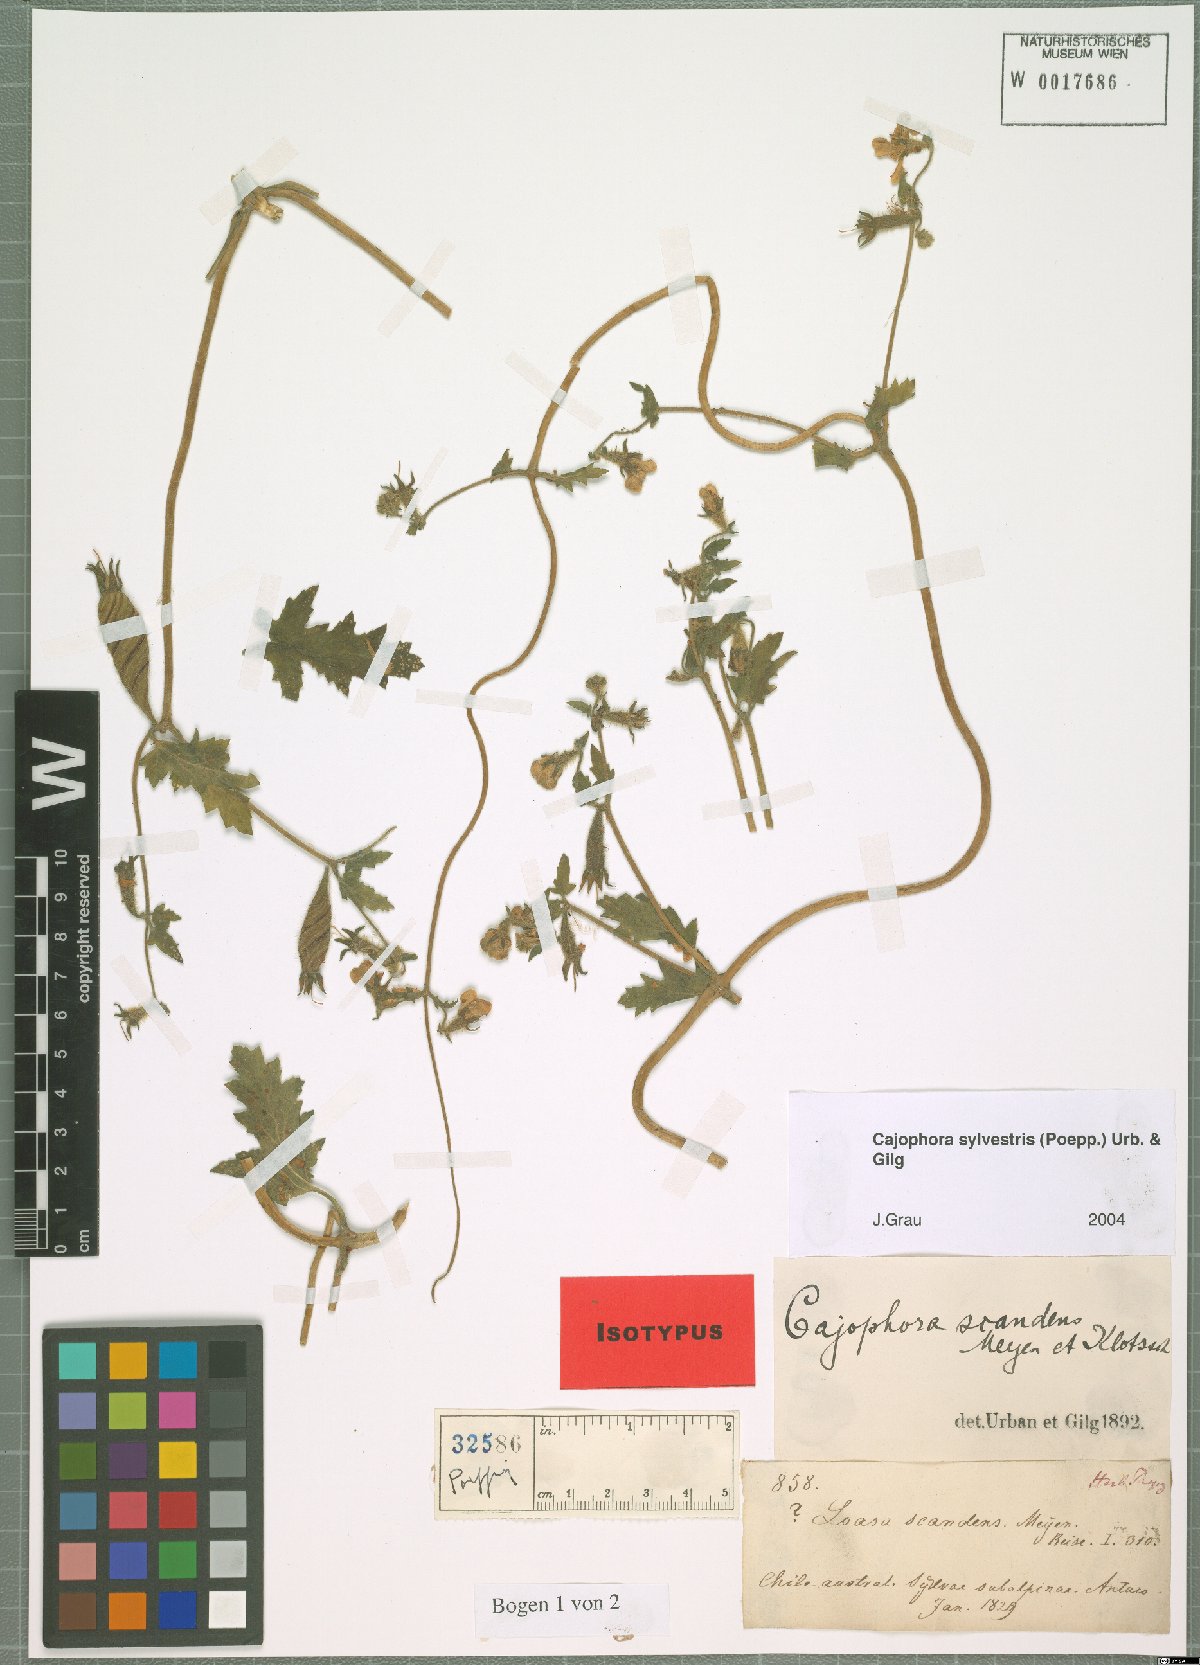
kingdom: Plantae
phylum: Tracheophyta
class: Magnoliopsida
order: Cornales
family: Loasaceae
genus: Blumenbachia
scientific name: Blumenbachia sylvestris
